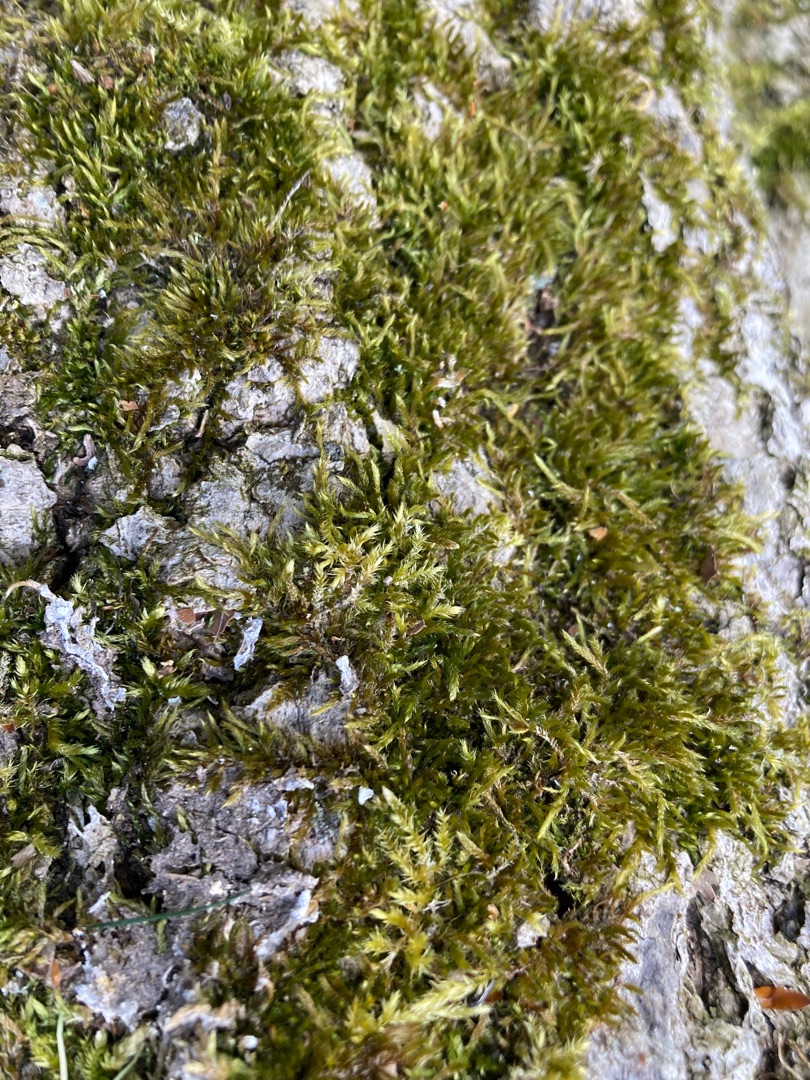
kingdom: Plantae
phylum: Bryophyta
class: Bryopsida
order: Hypnales
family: Hypnaceae
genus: Hypnum
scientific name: Hypnum cupressiforme
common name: Almindelig cypresmos
